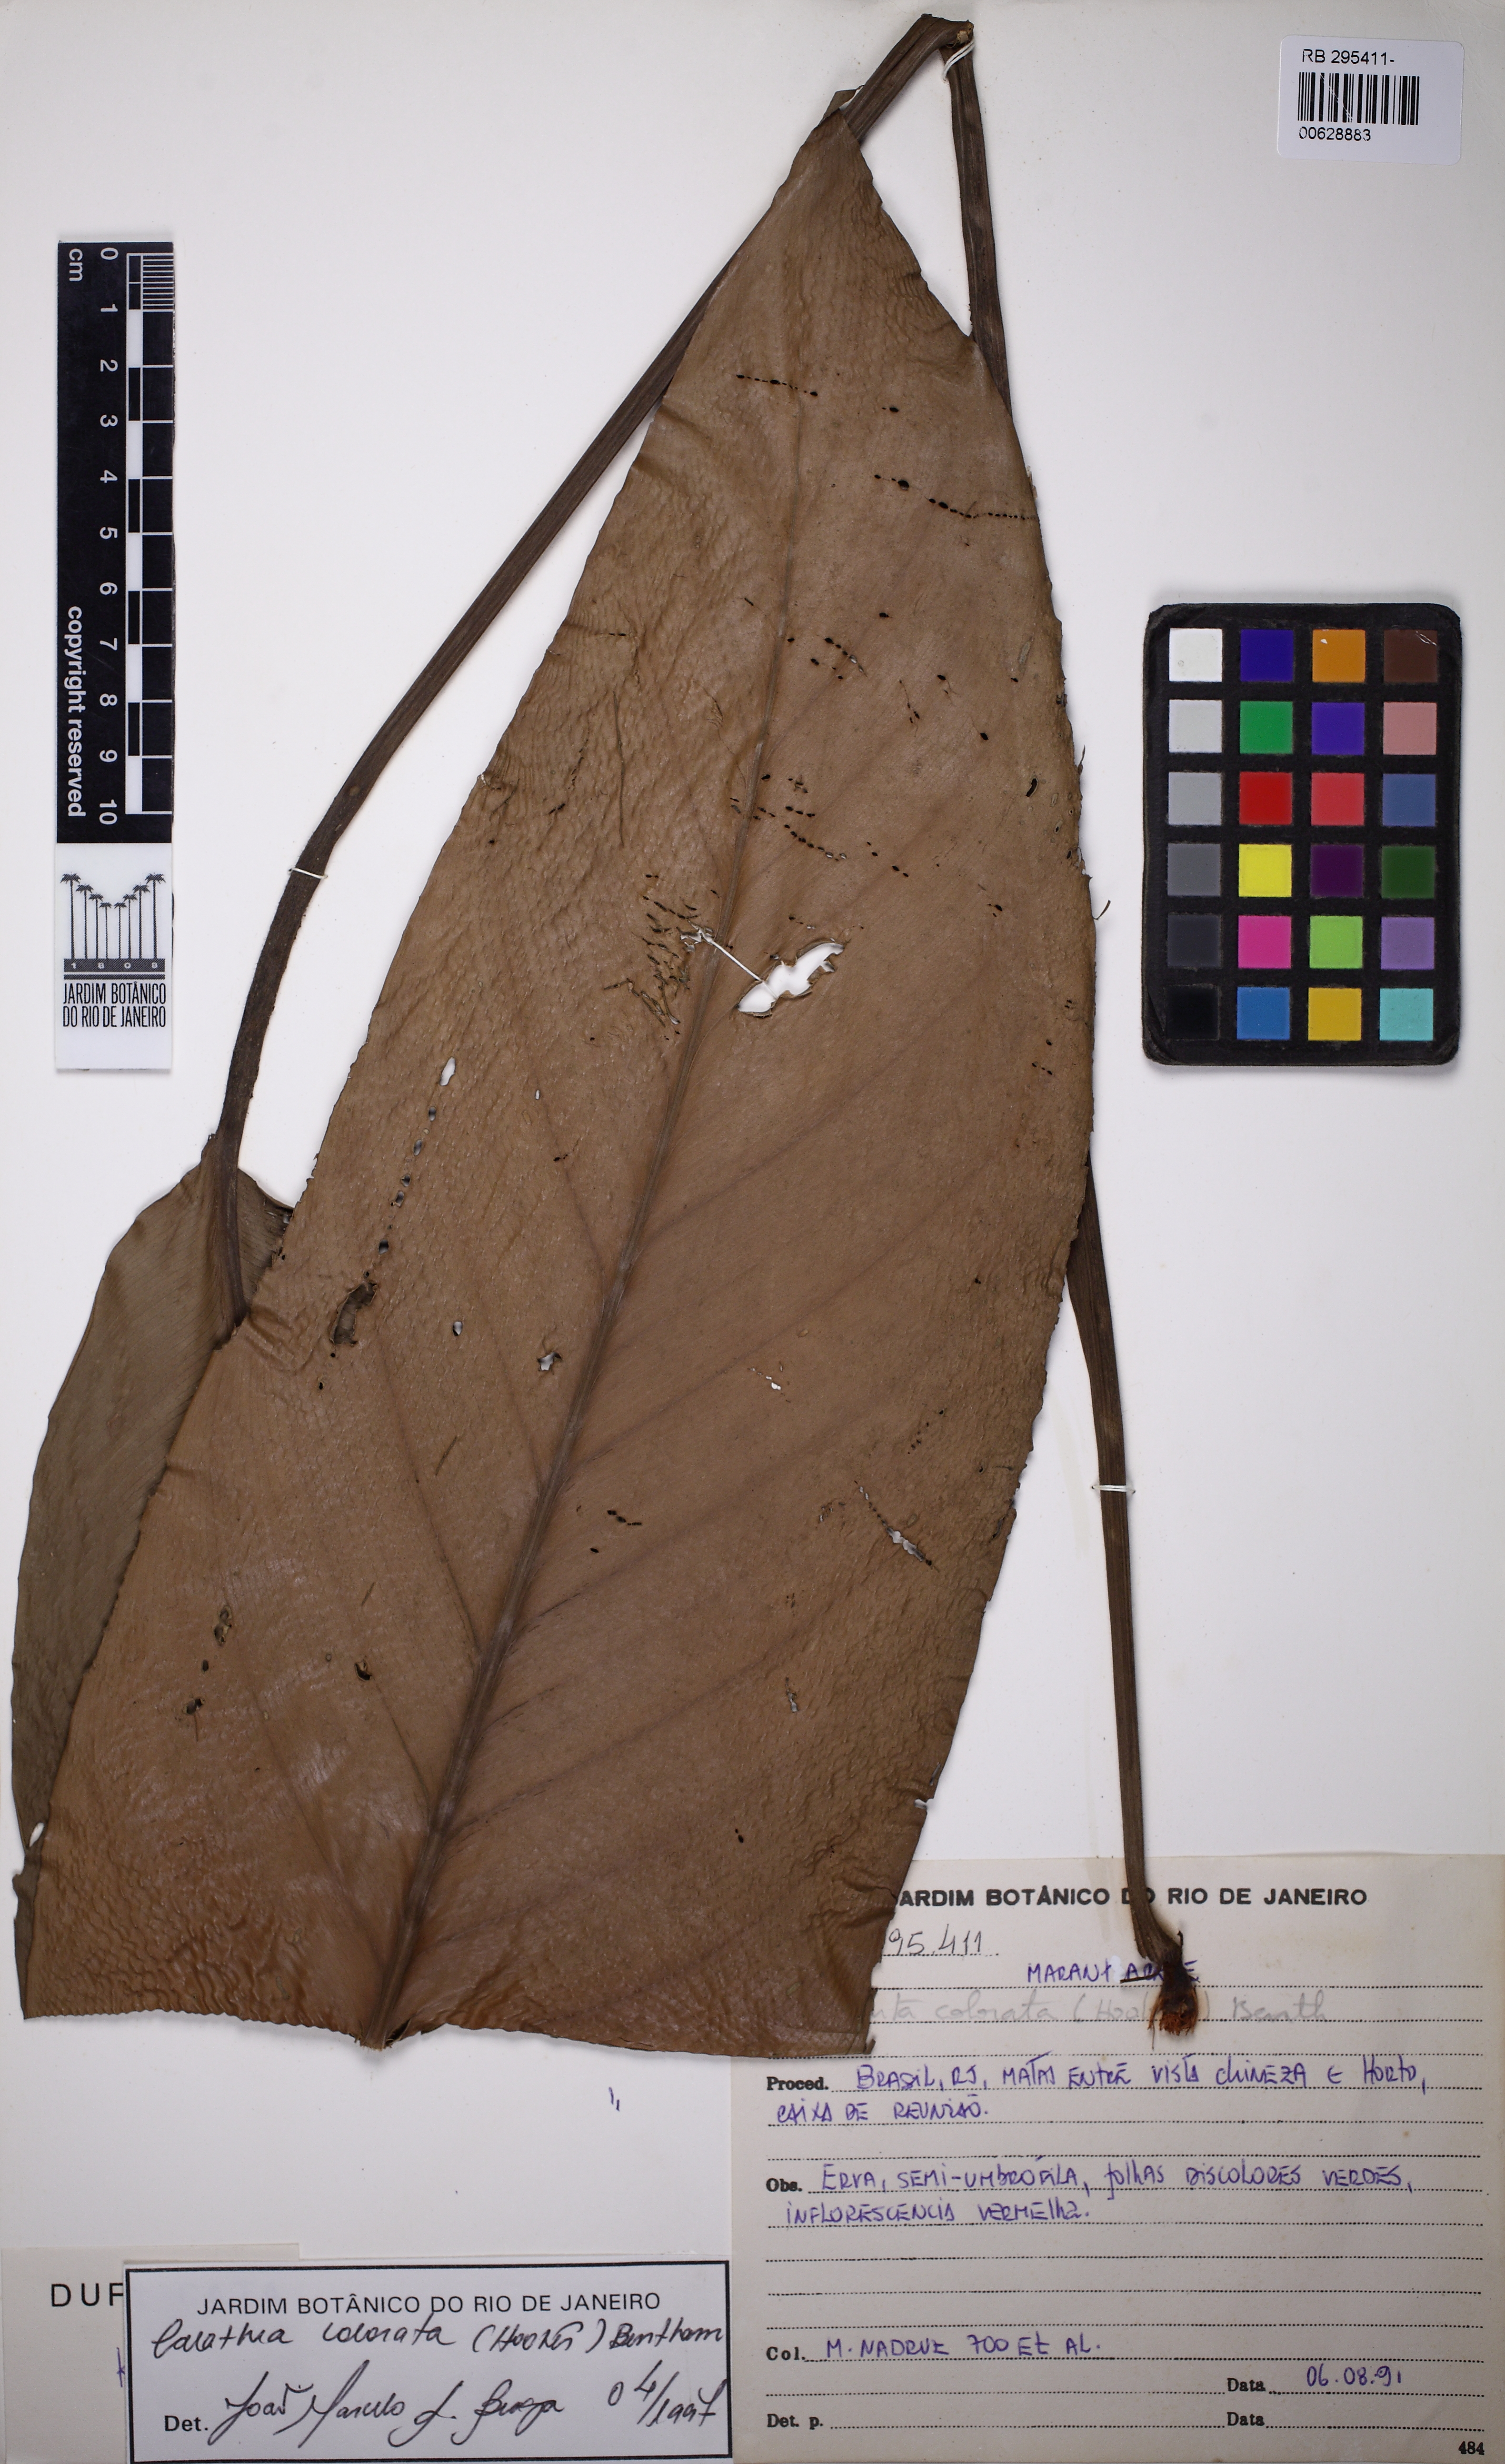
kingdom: Plantae
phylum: Tracheophyta
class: Liliopsida
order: Zingiberales
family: Marantaceae
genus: Goeppertia
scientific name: Goeppertia colorata
